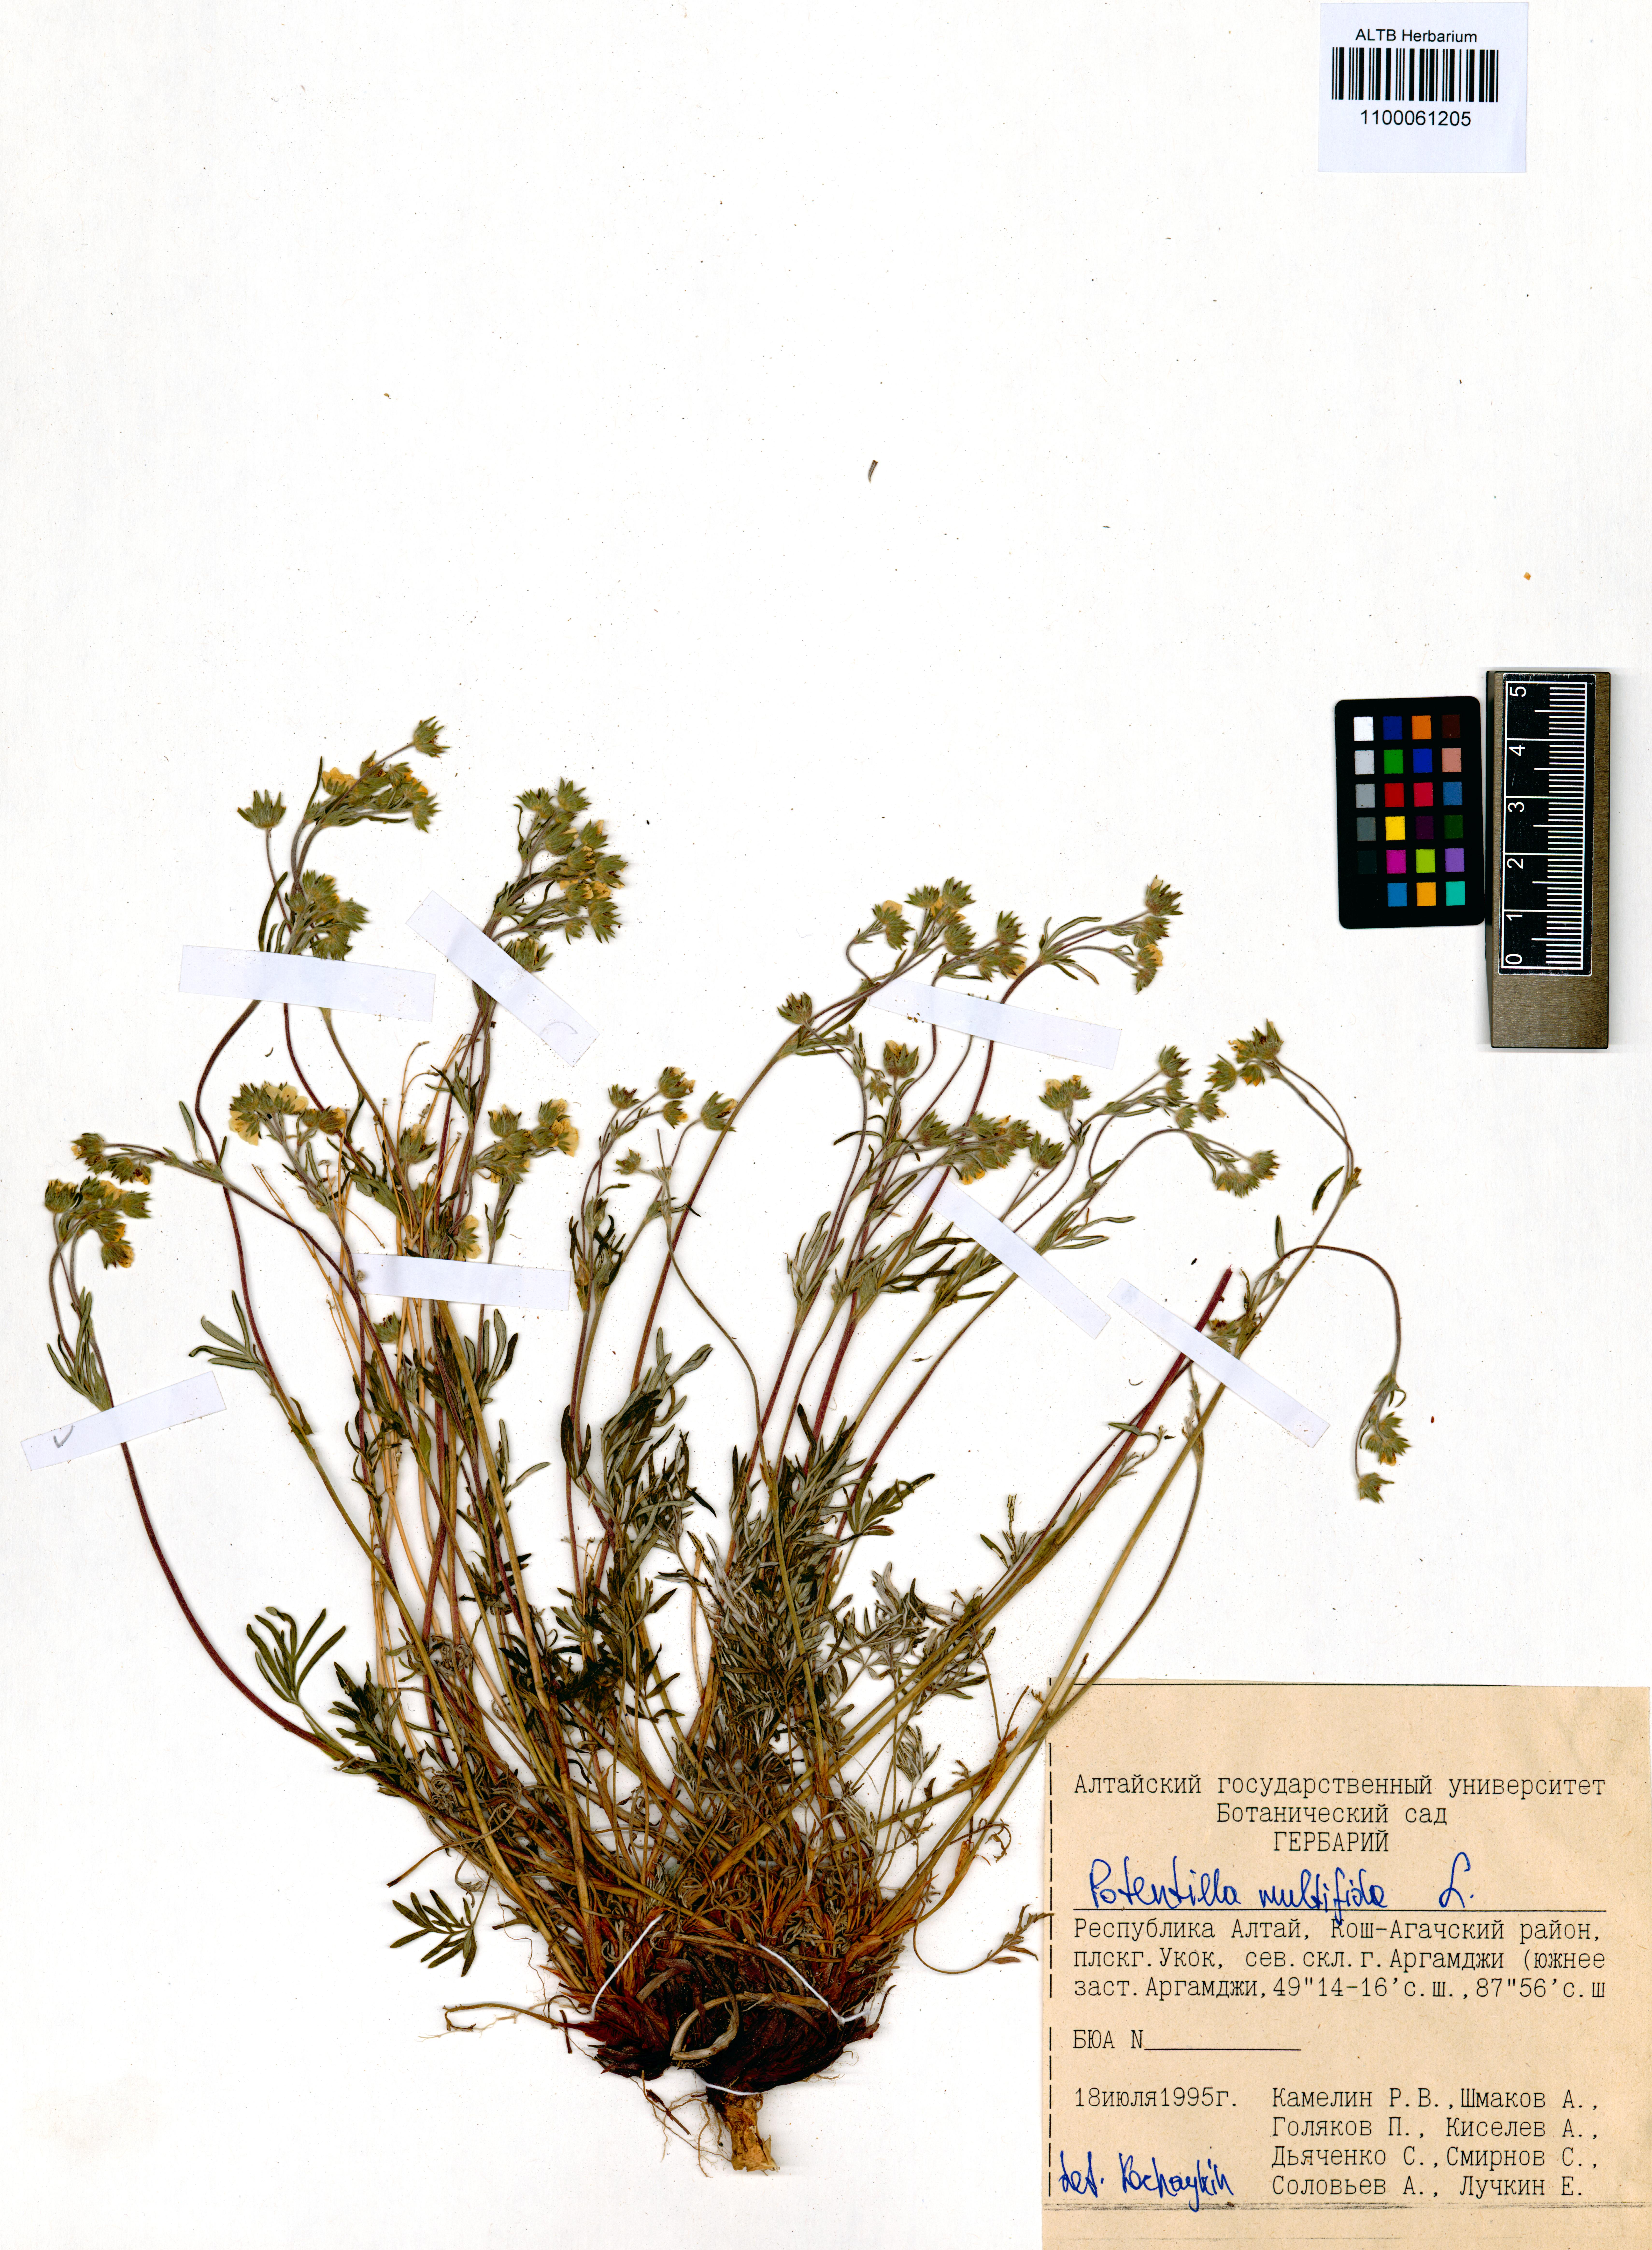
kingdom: Plantae
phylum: Tracheophyta
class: Magnoliopsida
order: Rosales
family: Rosaceae
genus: Potentilla
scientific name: Potentilla multifida
